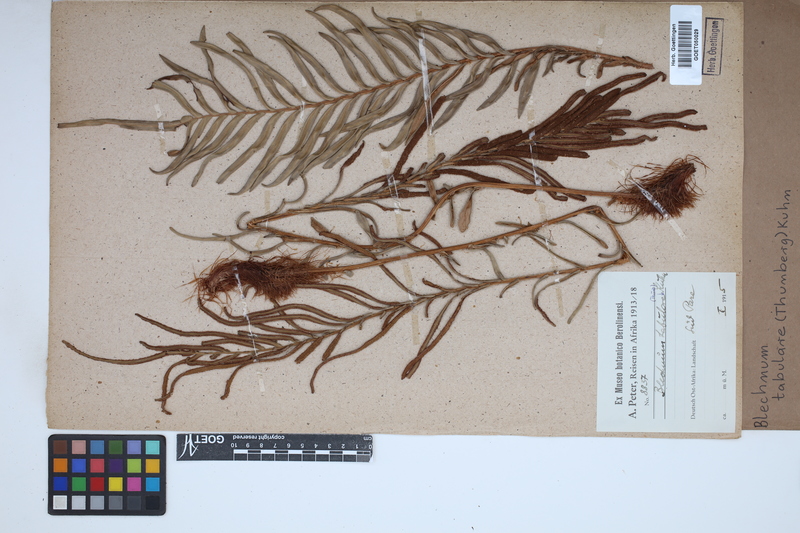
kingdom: Plantae
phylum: Tracheophyta
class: Polypodiopsida
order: Polypodiales
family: Blechnaceae
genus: Lomariocycas
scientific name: Lomariocycas tabularis
